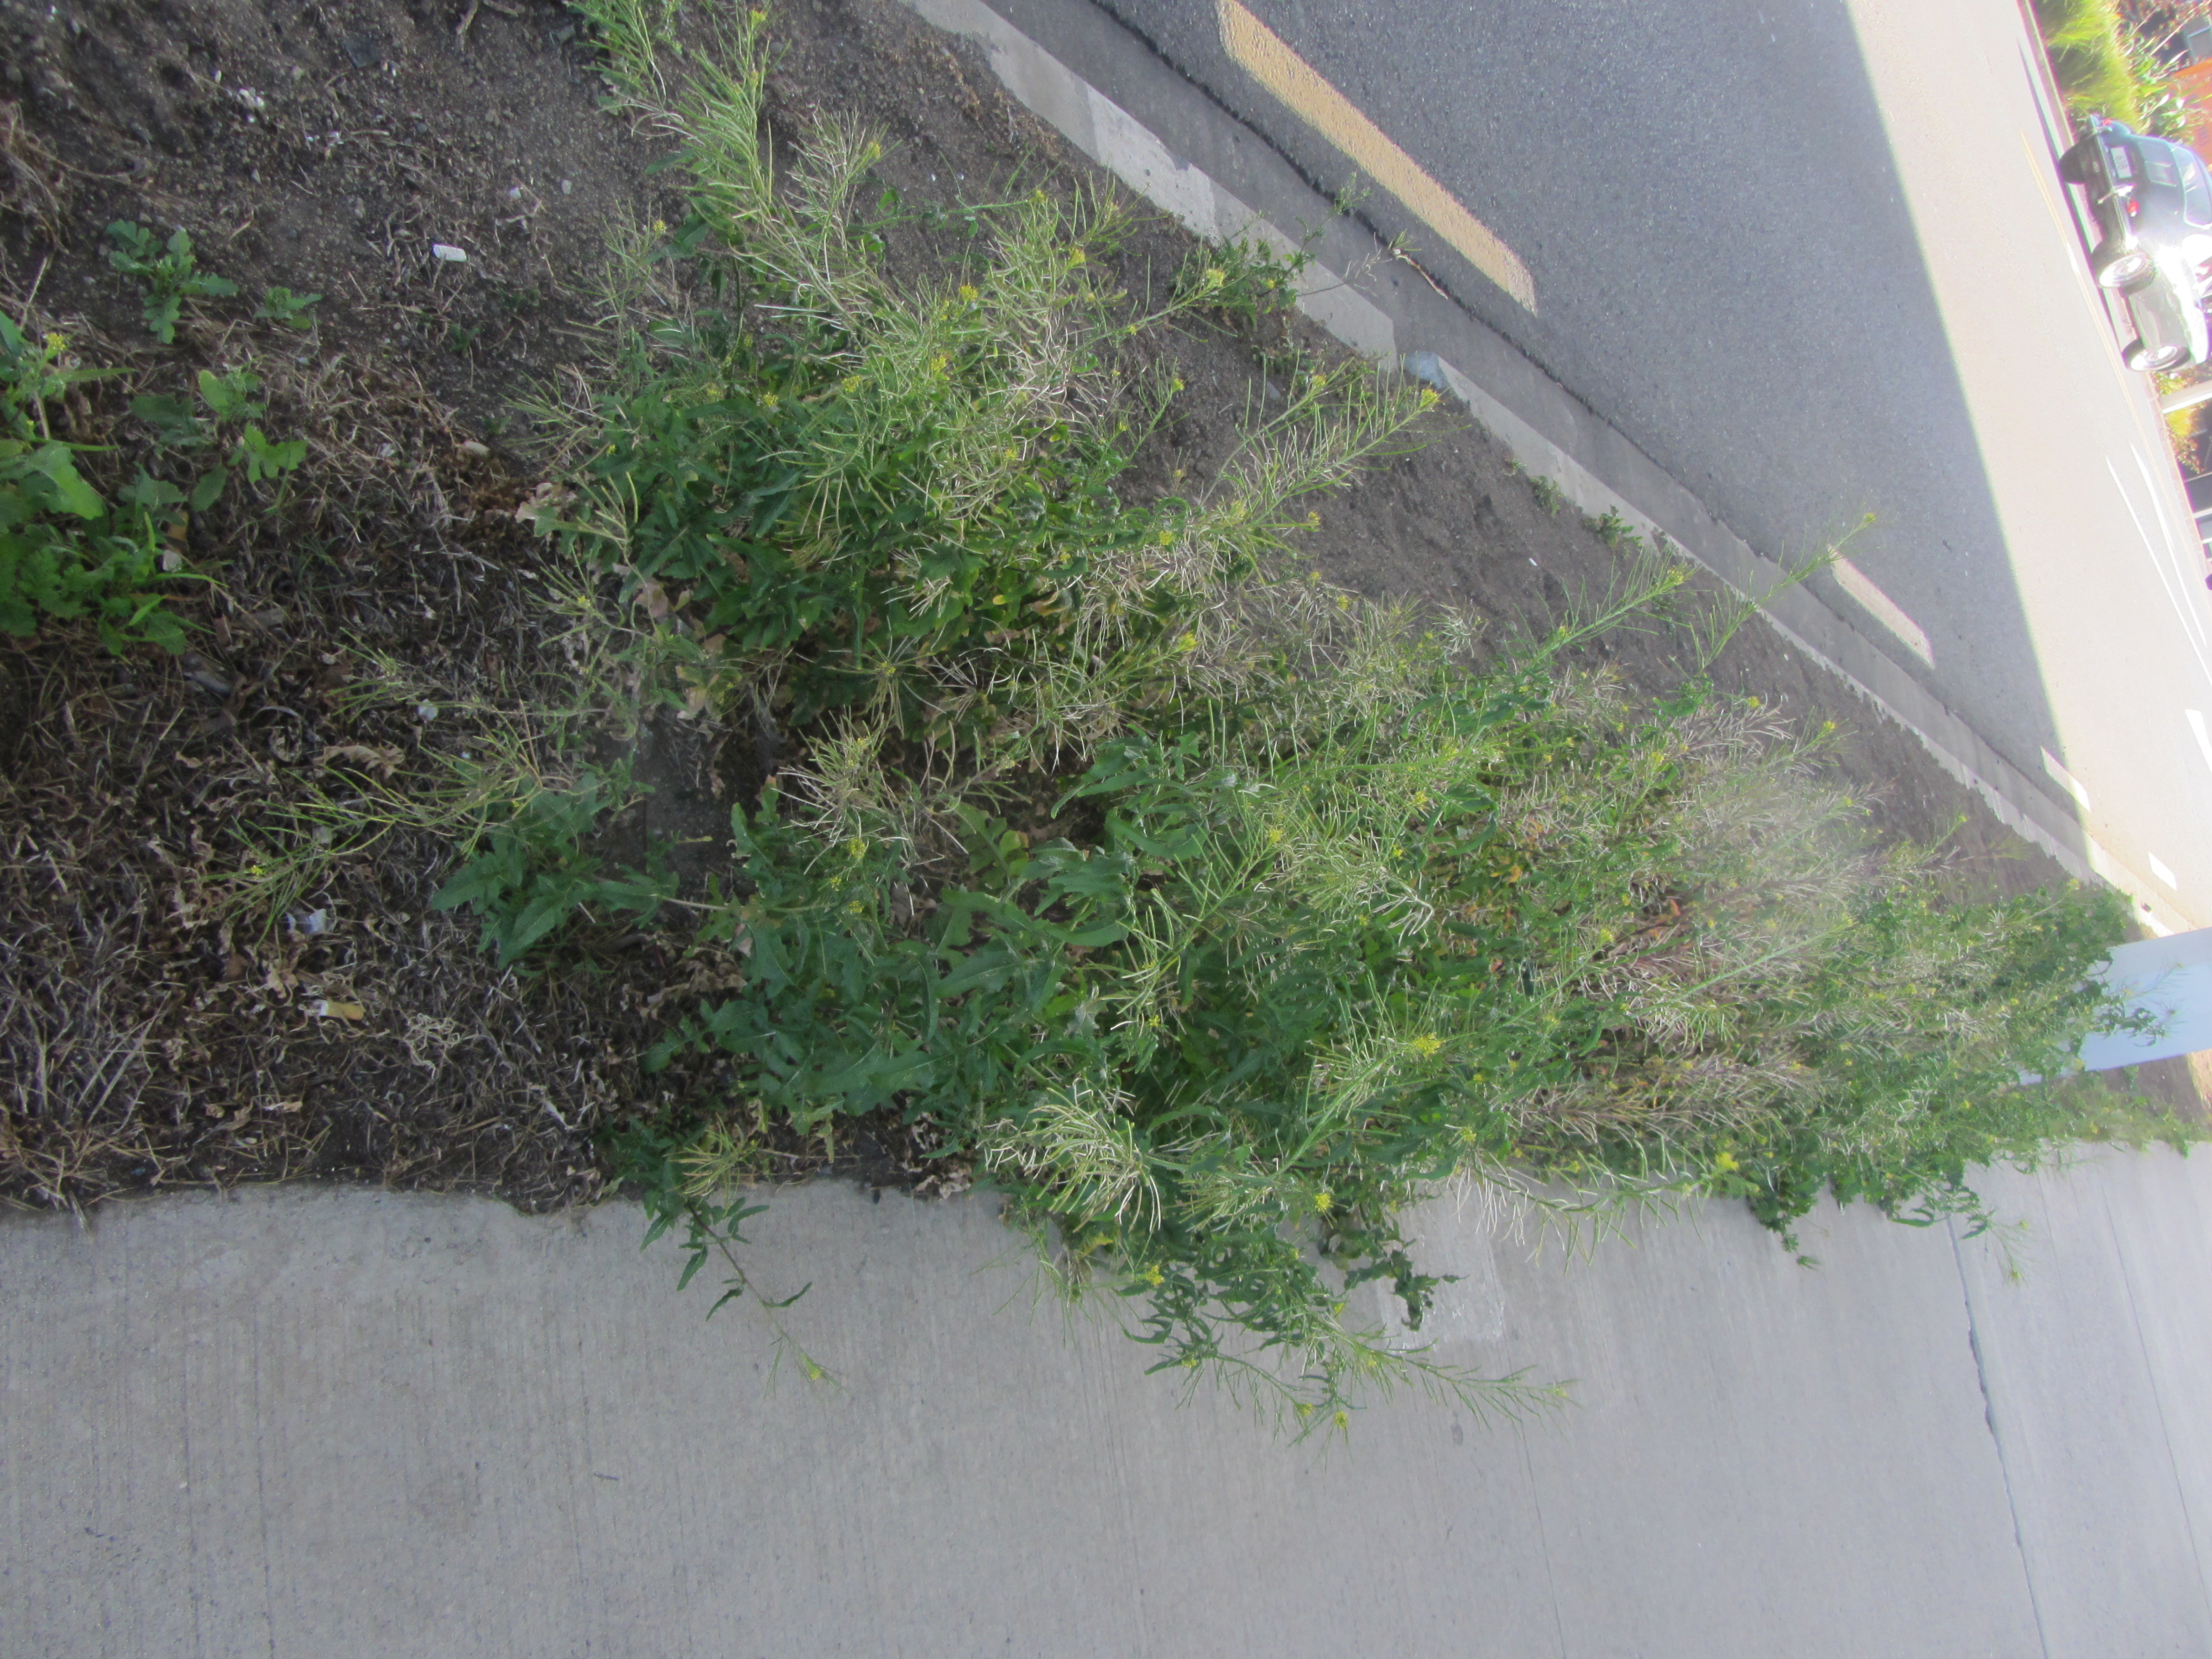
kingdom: Plantae
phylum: Tracheophyta
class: Magnoliopsida
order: Brassicales
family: Brassicaceae
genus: Sisymbrium
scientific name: Sisymbrium irio
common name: London rocket
